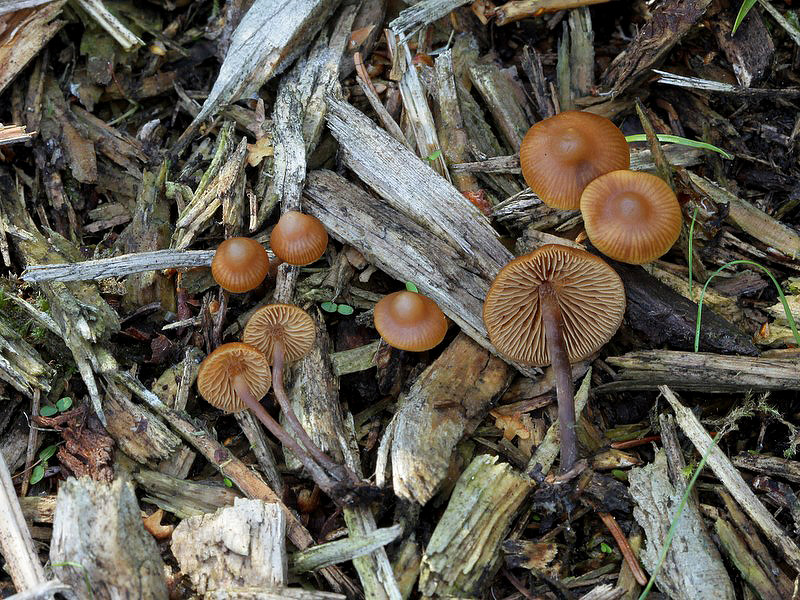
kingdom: Fungi
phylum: Basidiomycota
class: Agaricomycetes
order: Agaricales
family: Hymenogastraceae
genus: Galerina
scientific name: Galerina triscopa
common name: spidspuklet hjelmhat
